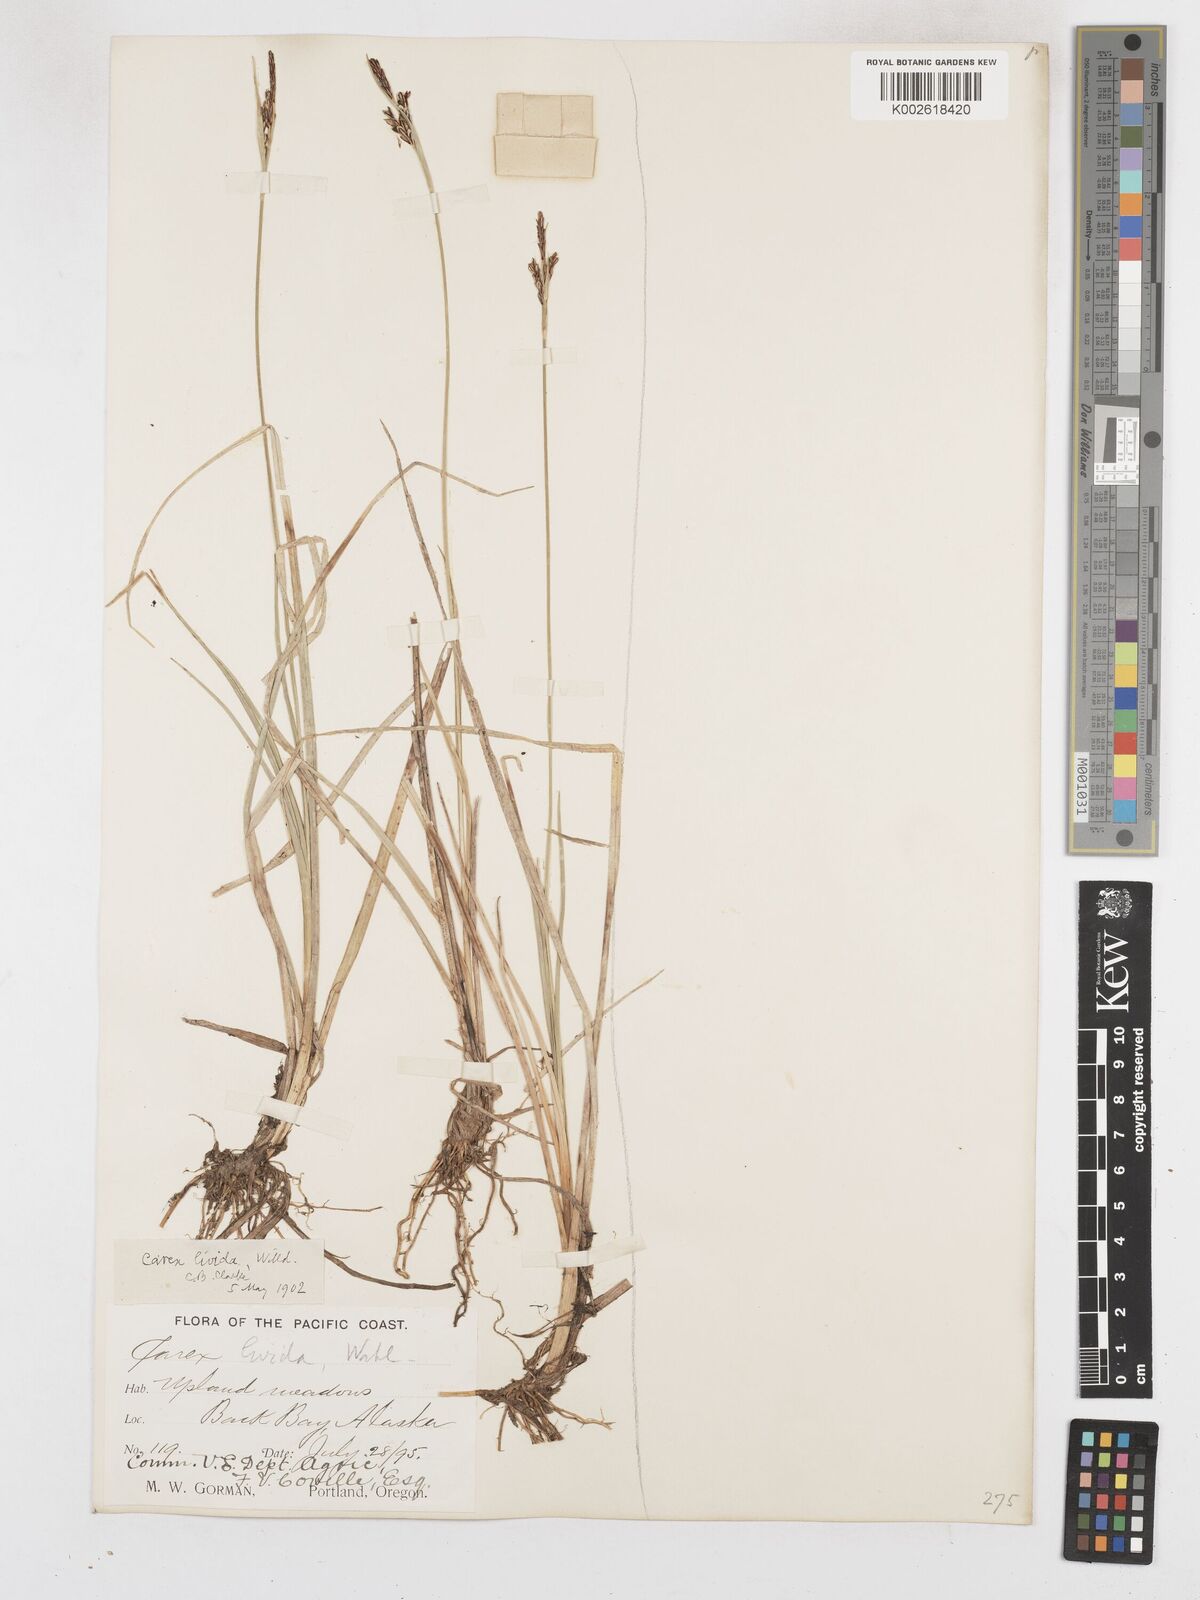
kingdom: Plantae
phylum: Tracheophyta
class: Liliopsida
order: Poales
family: Cyperaceae
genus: Carex
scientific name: Carex livida
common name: Livid sedge
